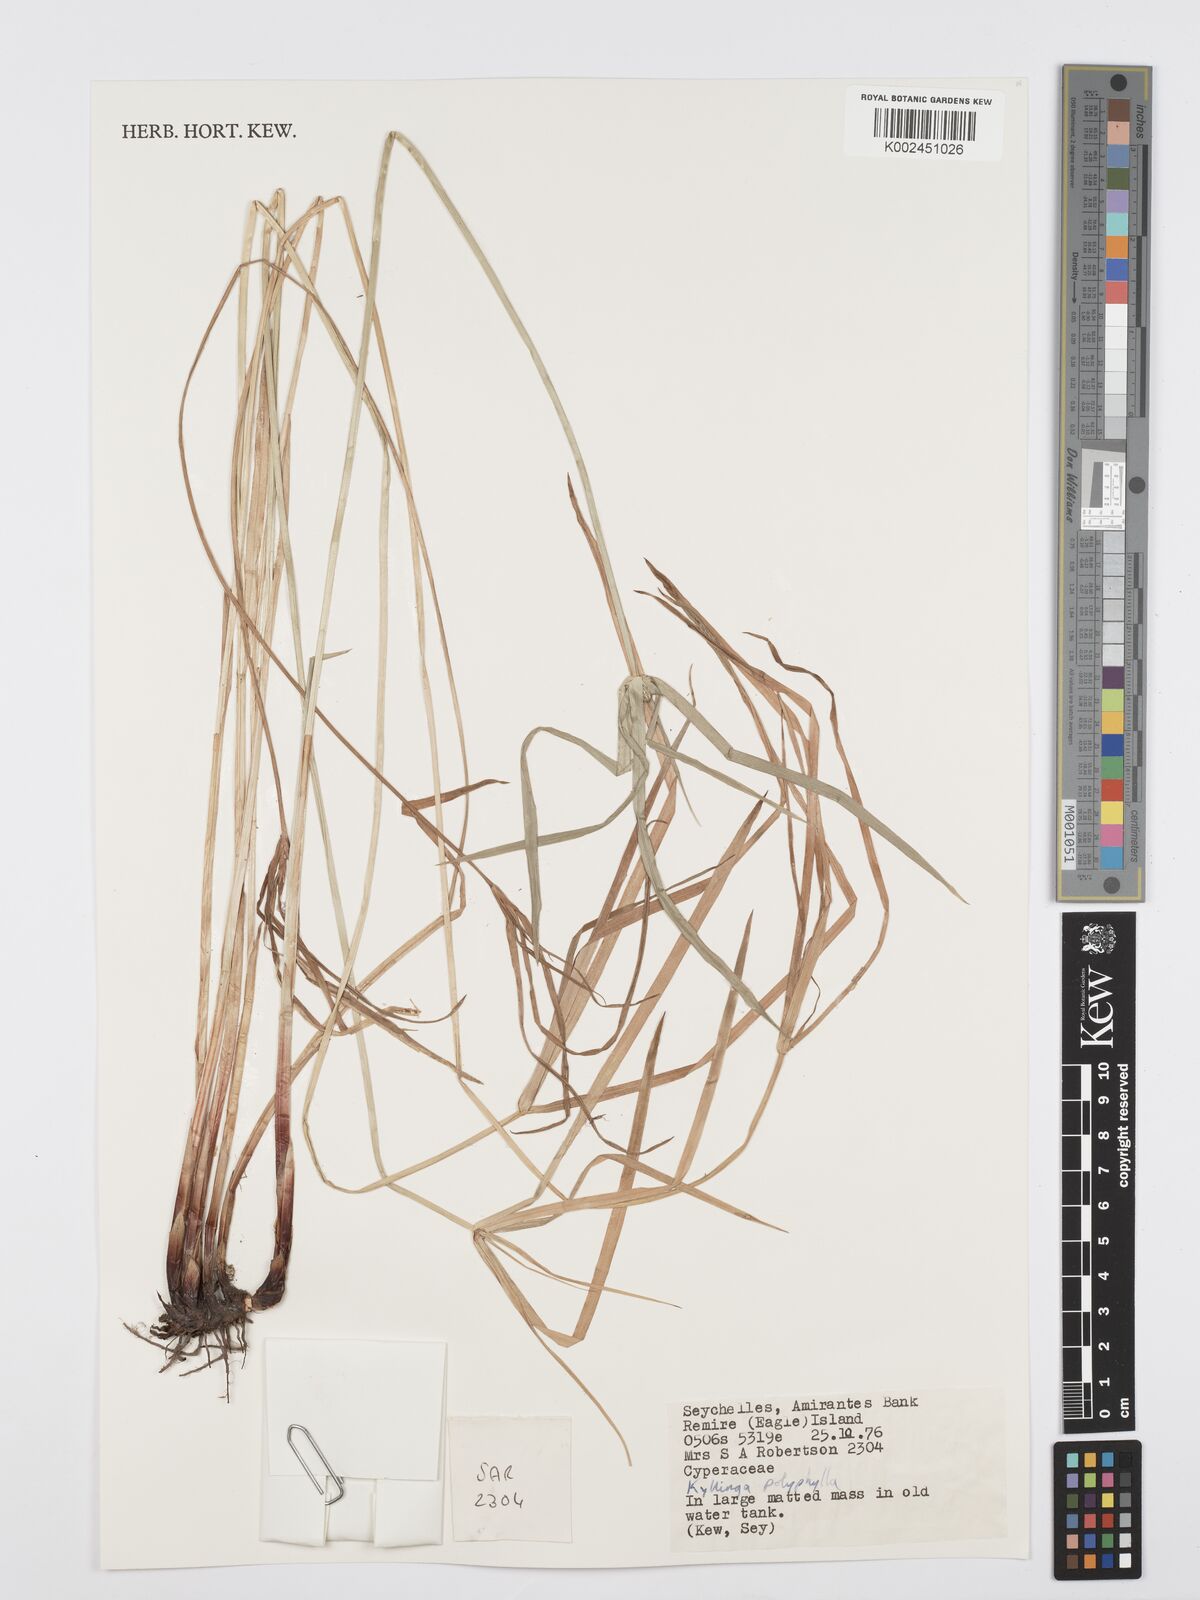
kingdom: Plantae
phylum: Tracheophyta
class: Liliopsida
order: Poales
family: Cyperaceae
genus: Cyperus
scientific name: Cyperus bulbosus
